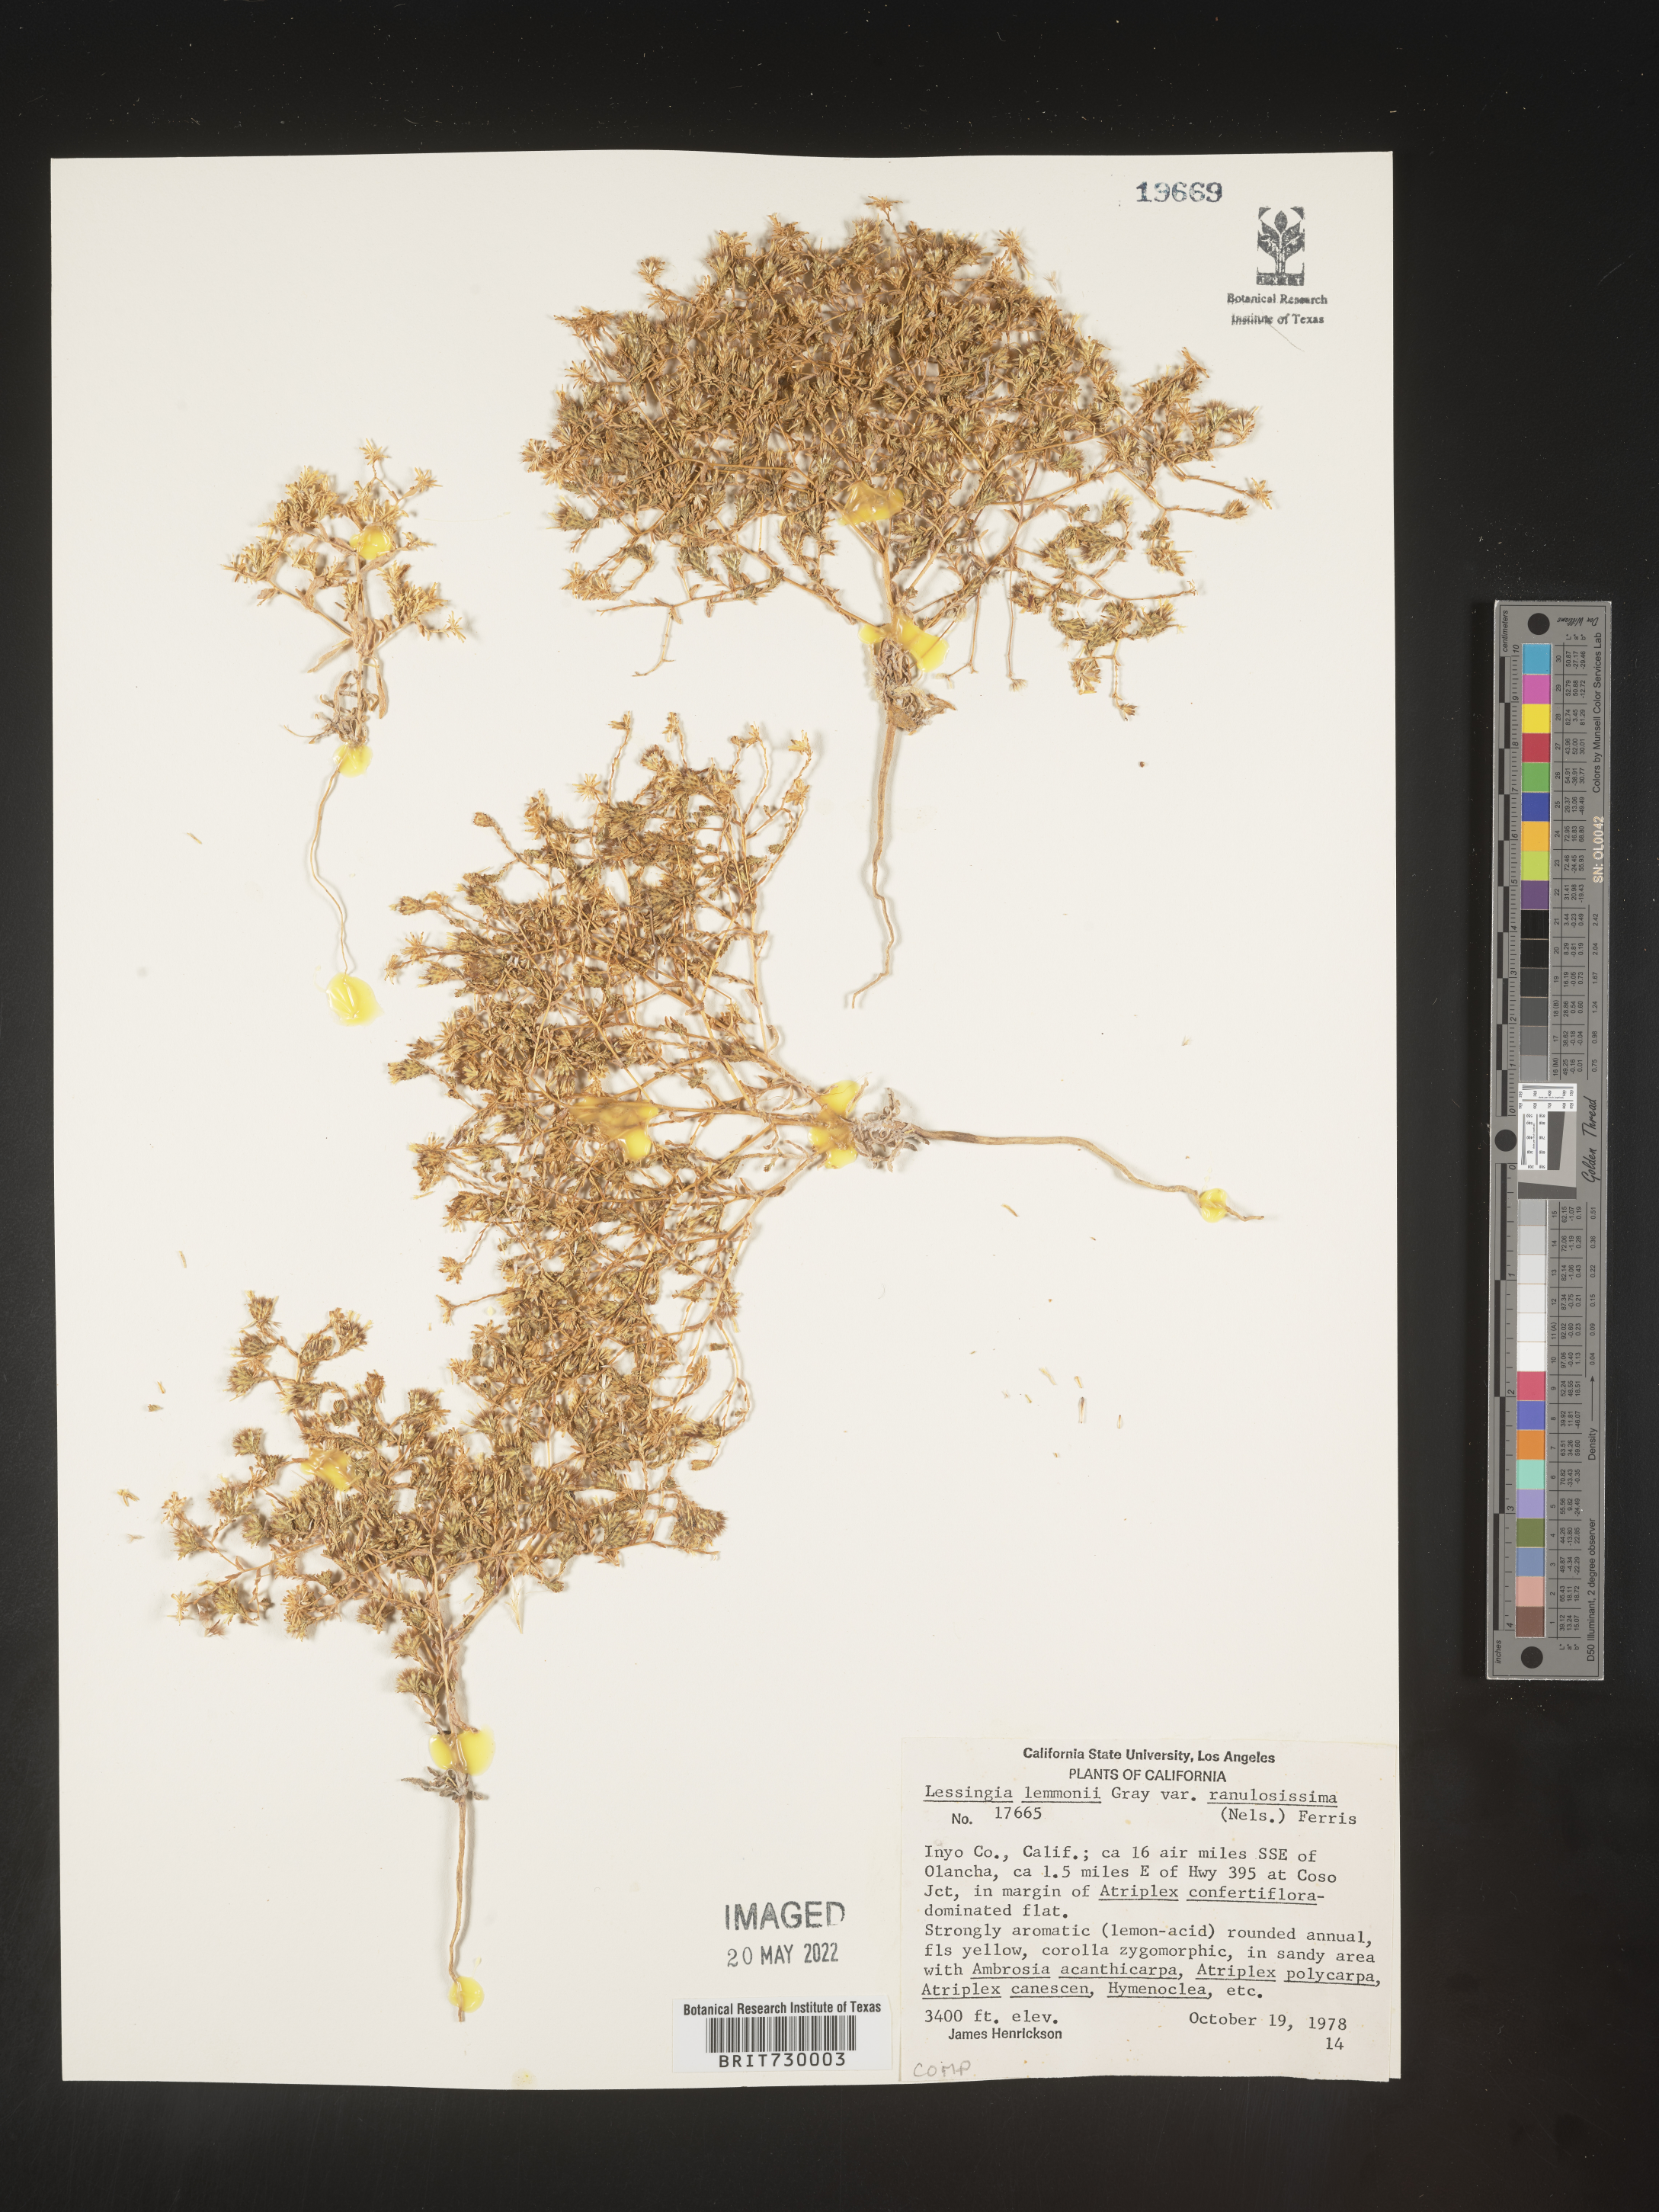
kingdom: Plantae
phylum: Tracheophyta
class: Magnoliopsida
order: Asterales
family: Asteraceae
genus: Lessingia
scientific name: Lessingia
